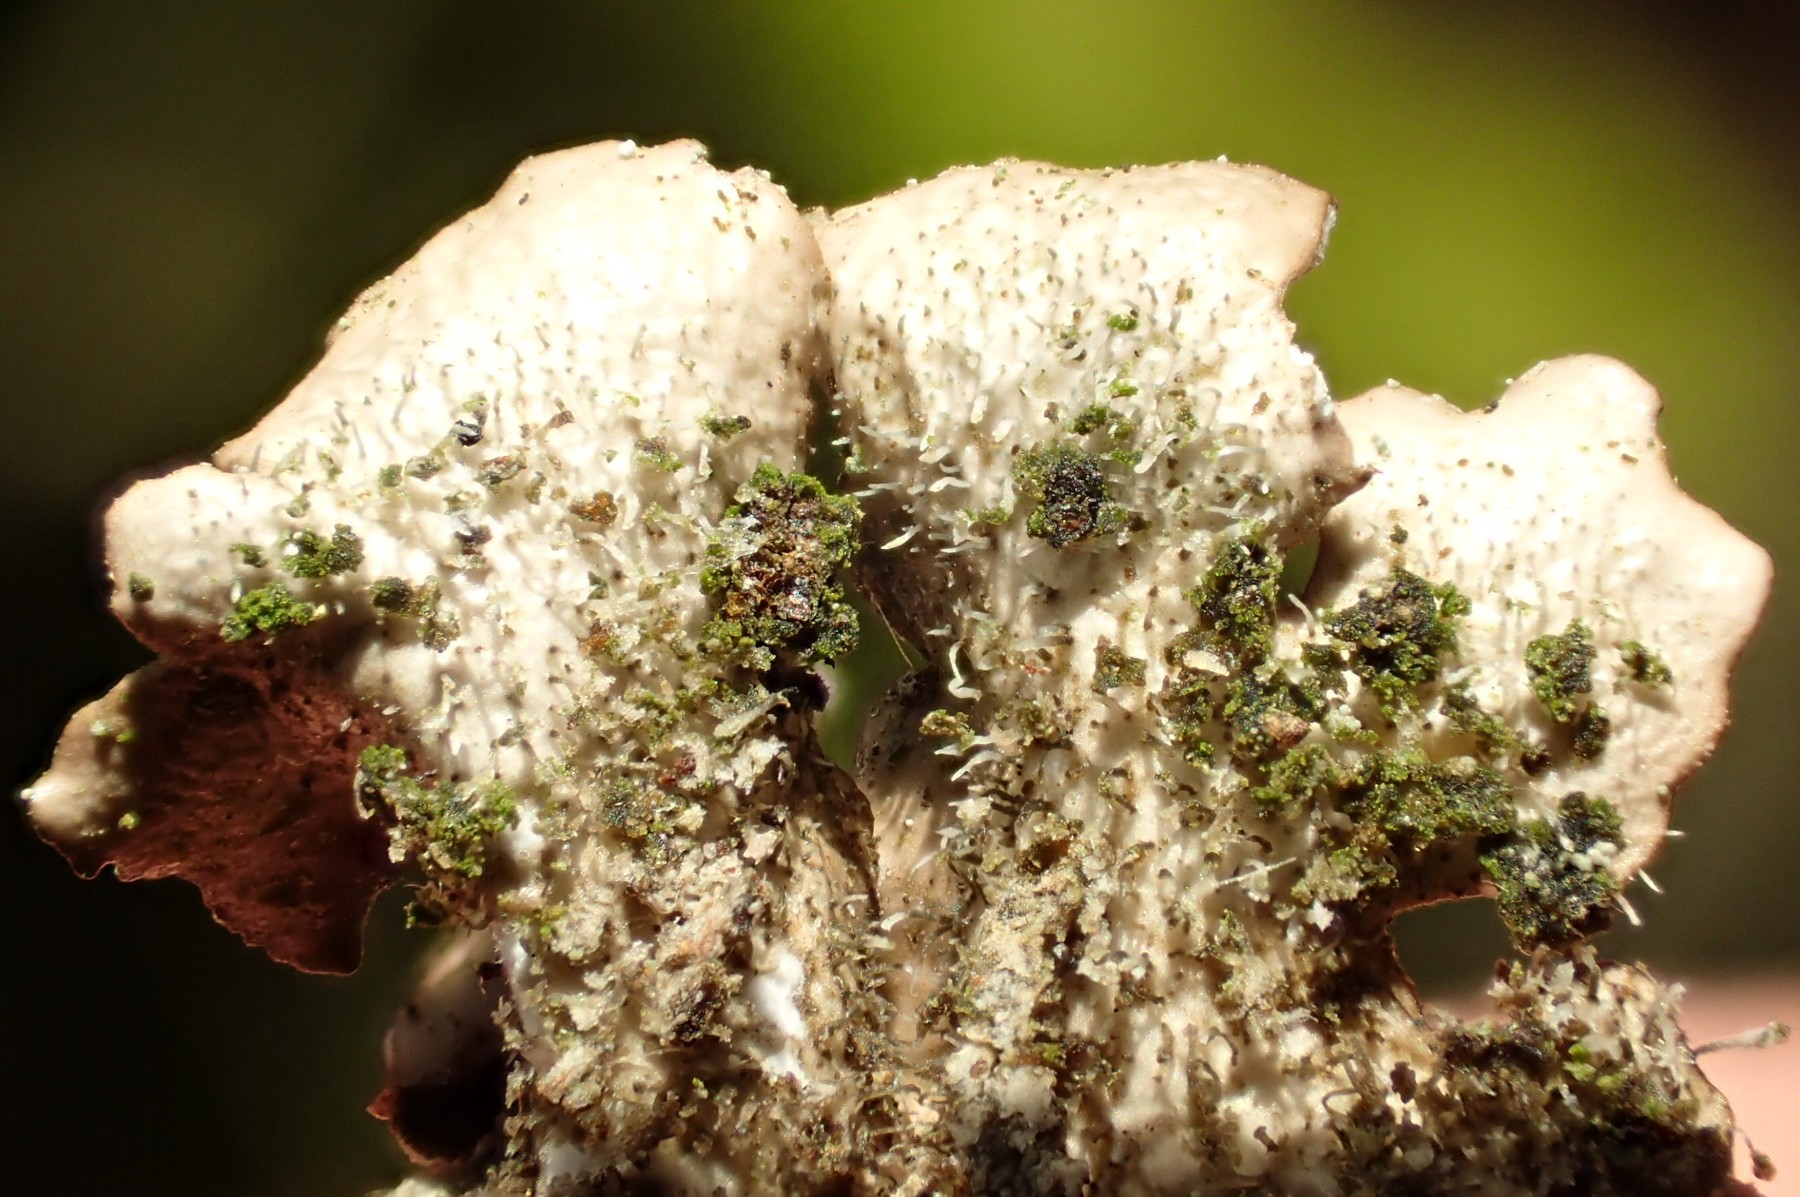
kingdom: Fungi
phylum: Ascomycota
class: Lecanoromycetes
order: Lecanorales
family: Parmeliaceae
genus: Punctelia
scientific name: Punctelia subrudecta
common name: punkt-skållav
